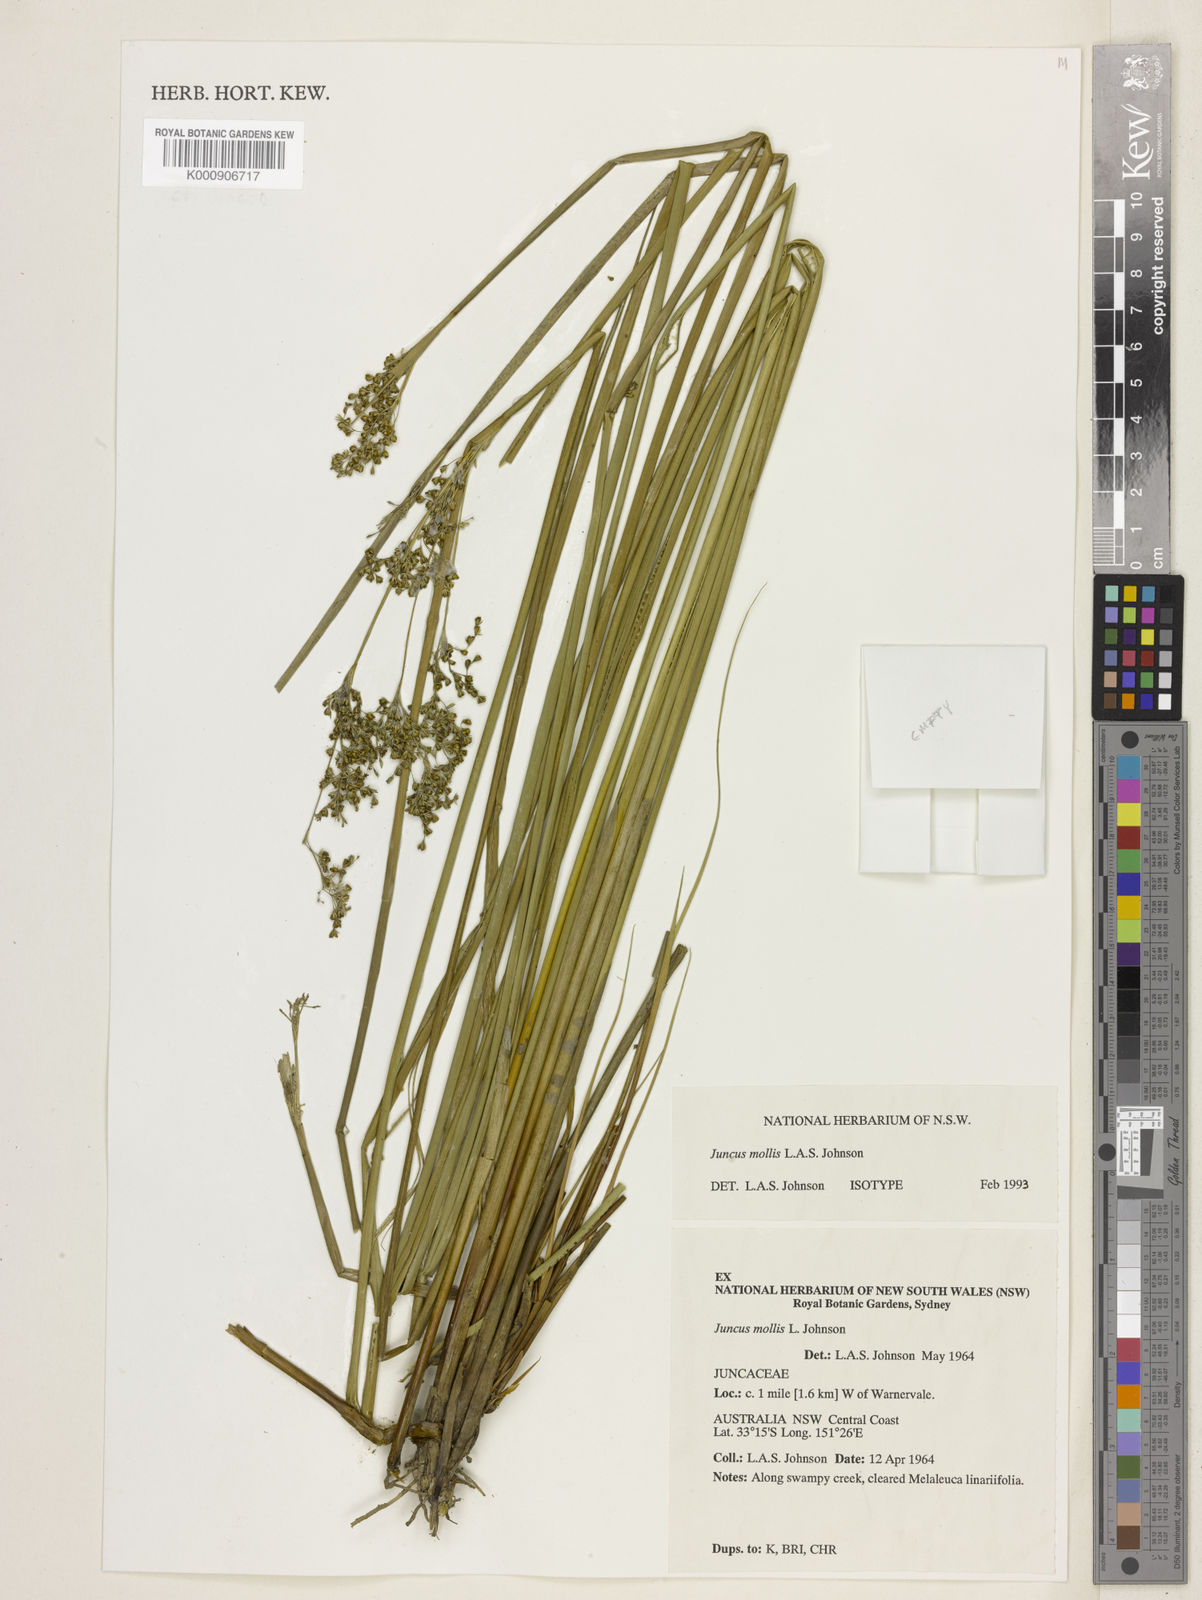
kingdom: Plantae
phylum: Tracheophyta
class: Liliopsida
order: Poales
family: Juncaceae
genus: Juncus
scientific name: Juncus mollis
